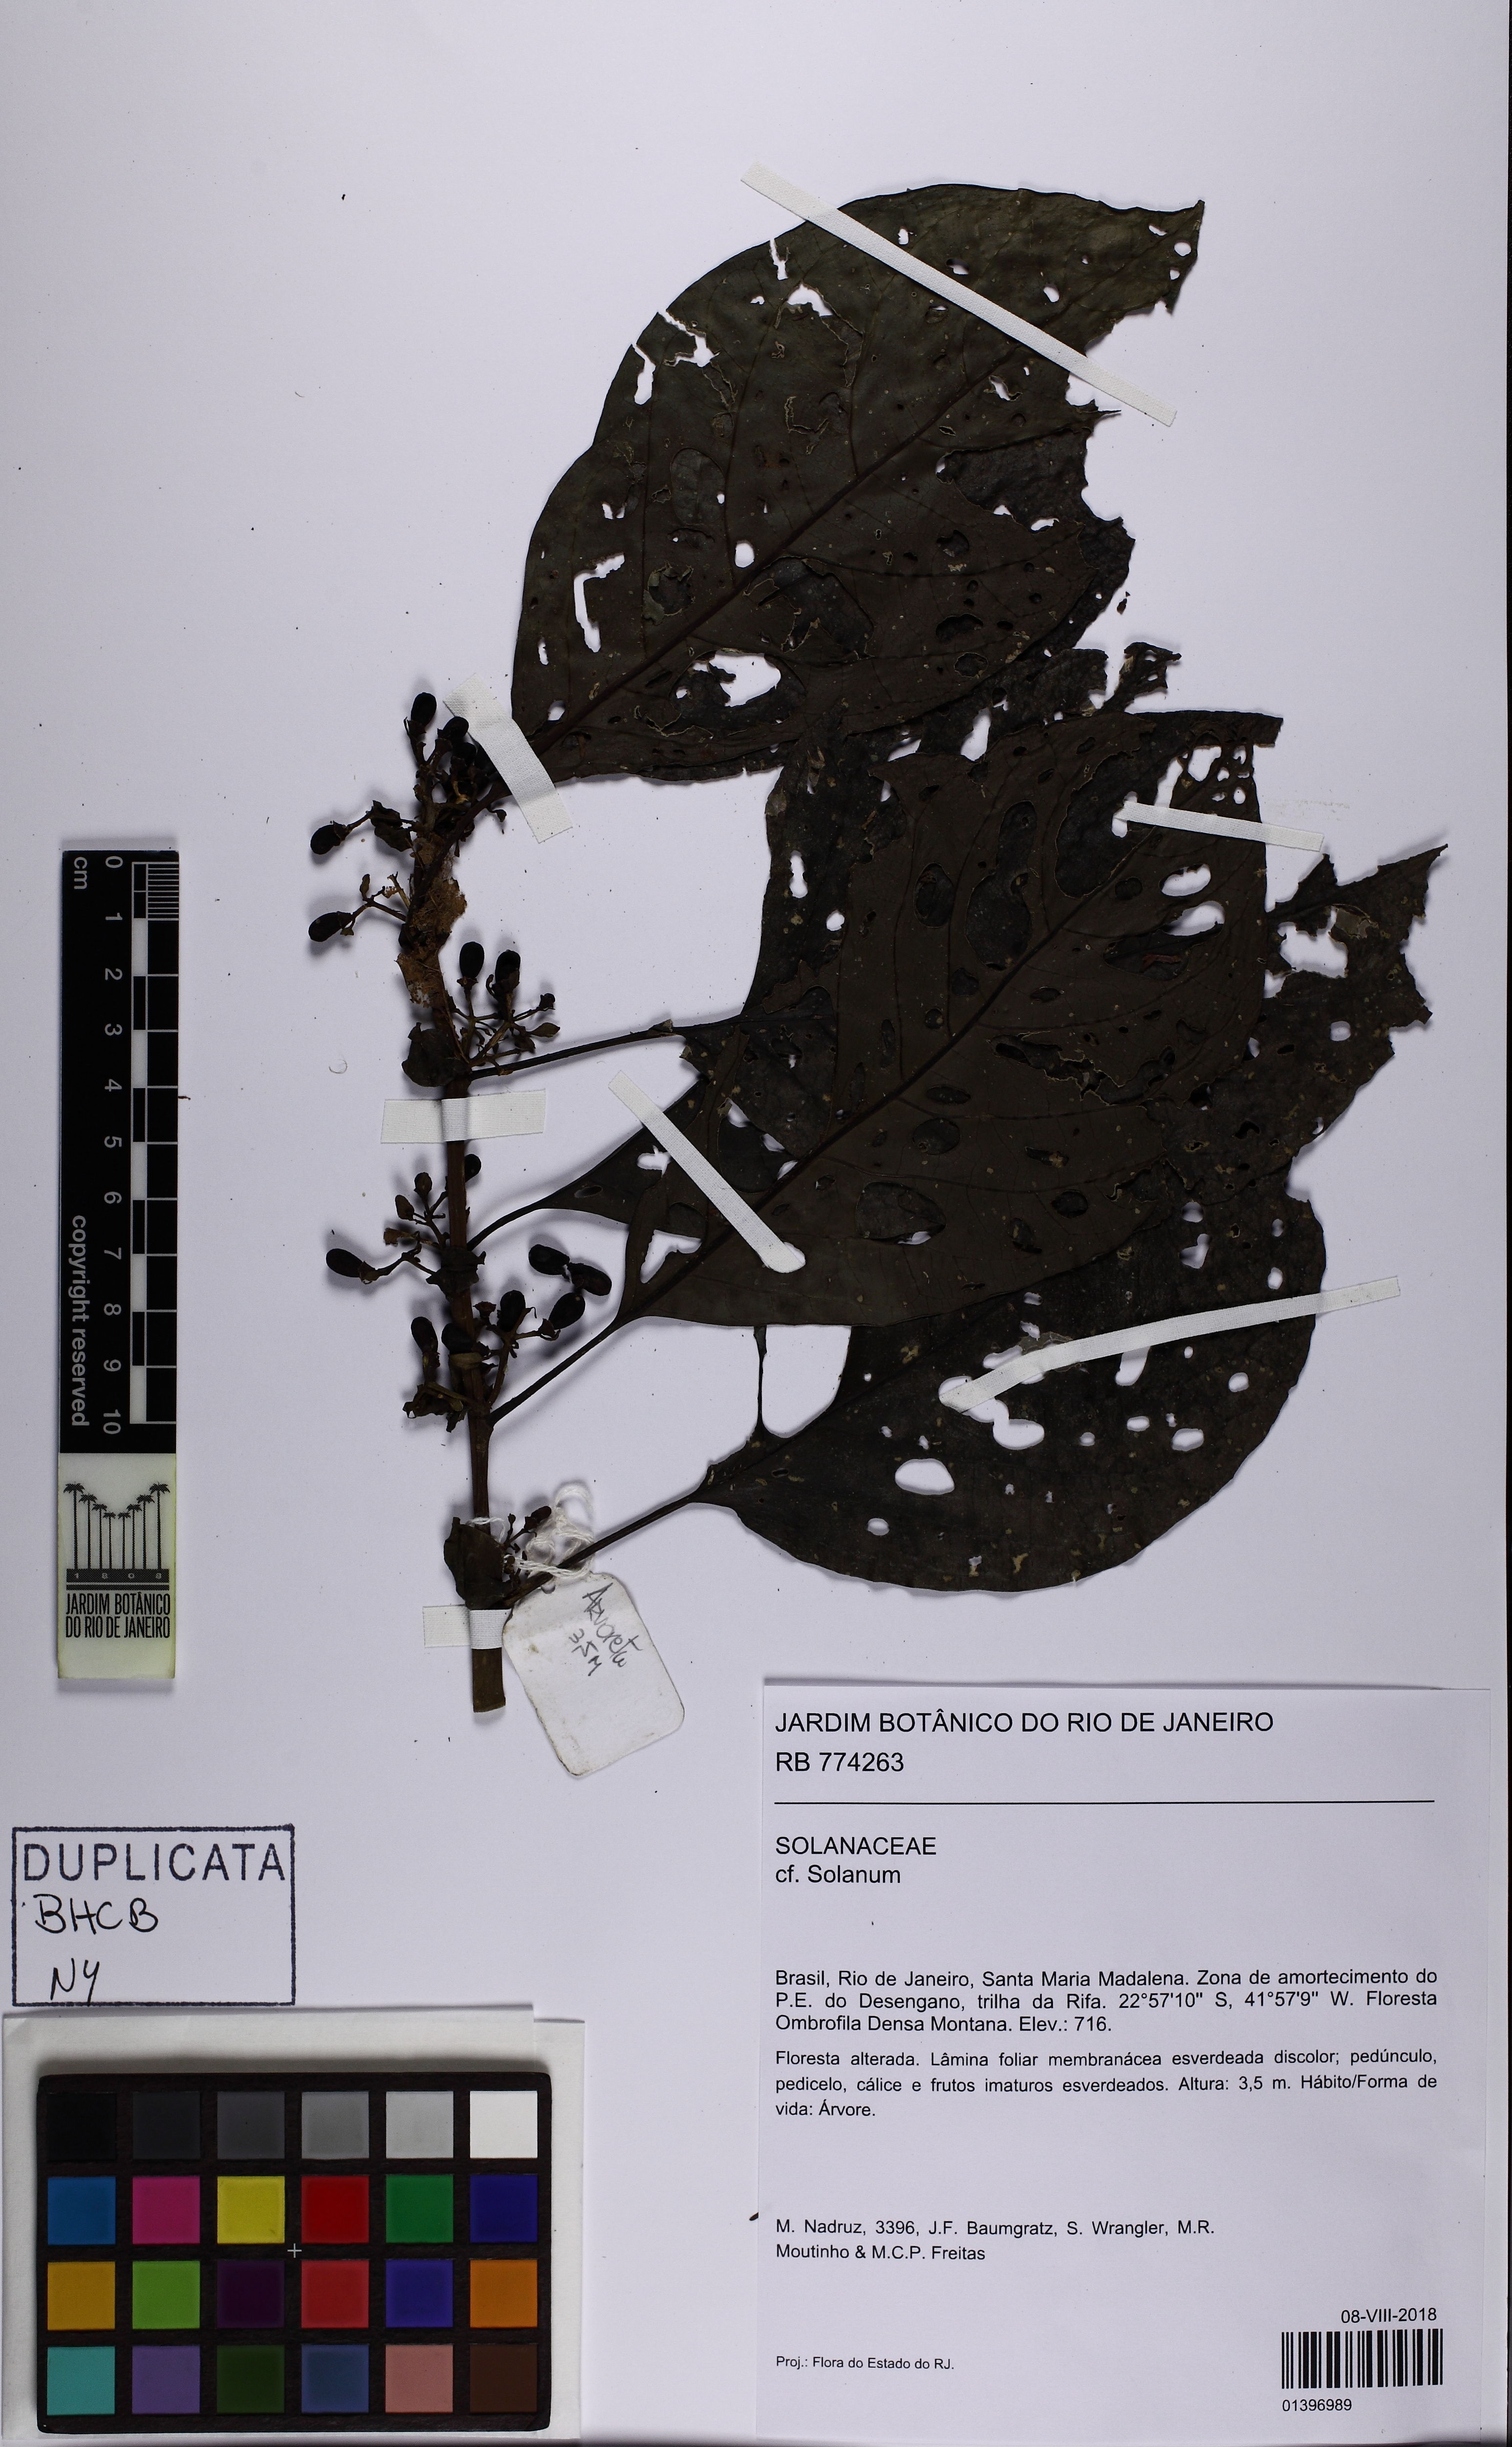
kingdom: Plantae
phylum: Tracheophyta
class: Magnoliopsida
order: Solanales
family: Solanaceae
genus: Cestrum
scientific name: Cestrum
